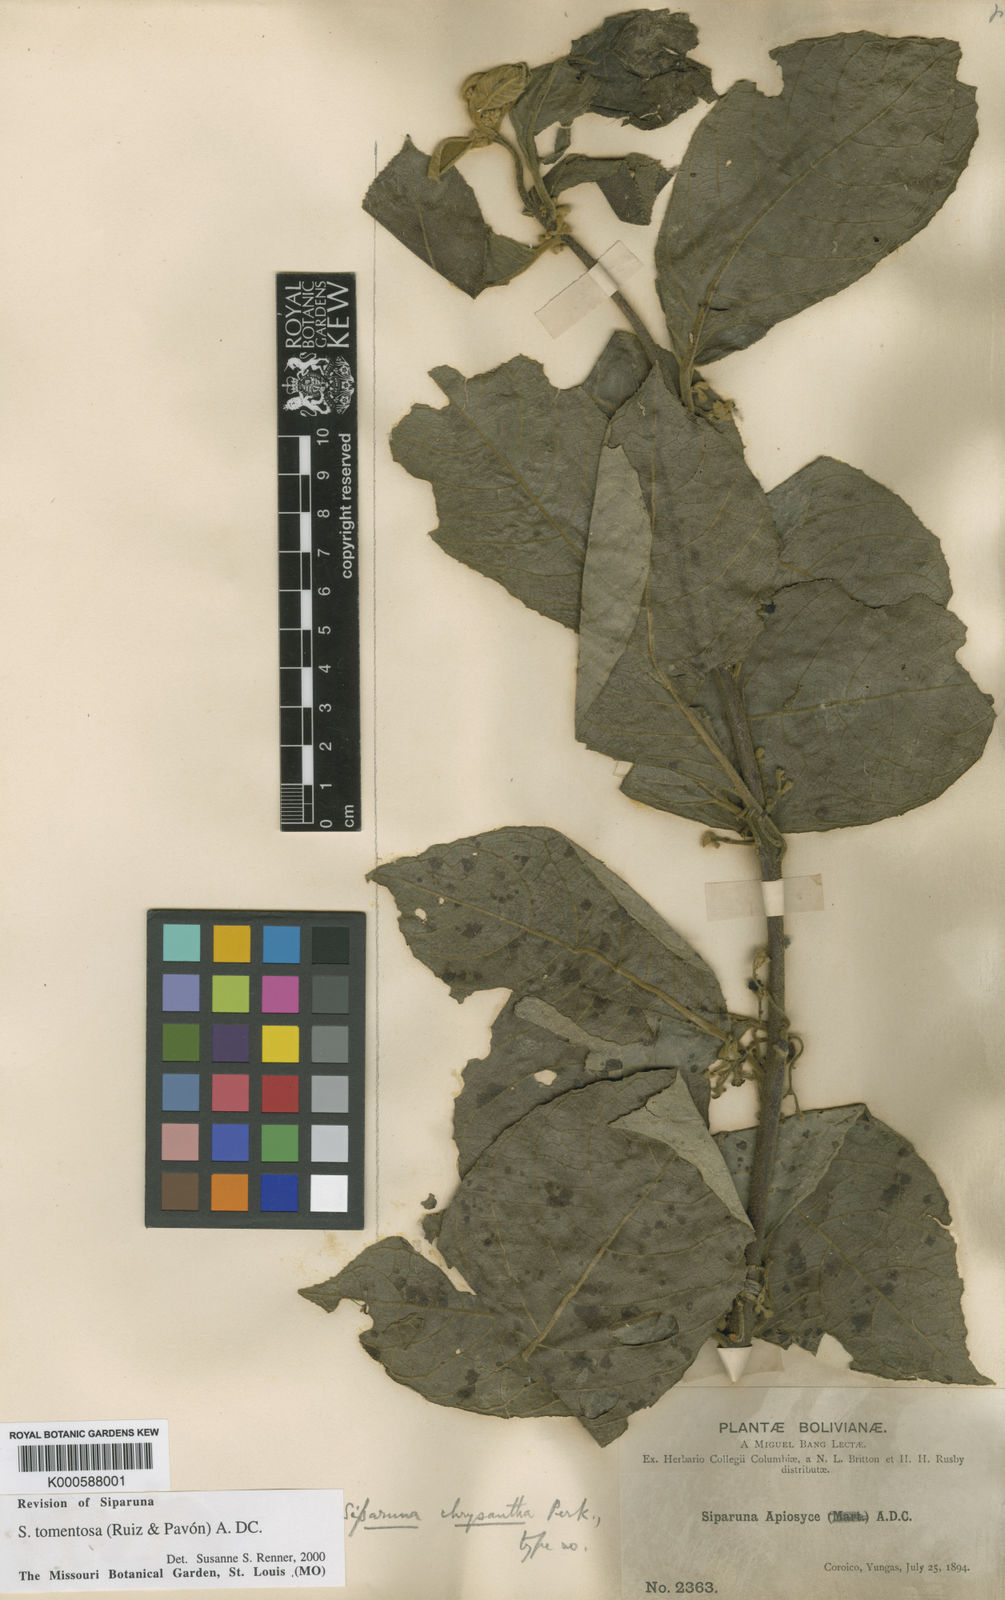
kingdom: Plantae
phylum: Tracheophyta
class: Magnoliopsida
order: Laurales
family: Siparunaceae
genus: Siparuna
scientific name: Siparuna tomentosa
